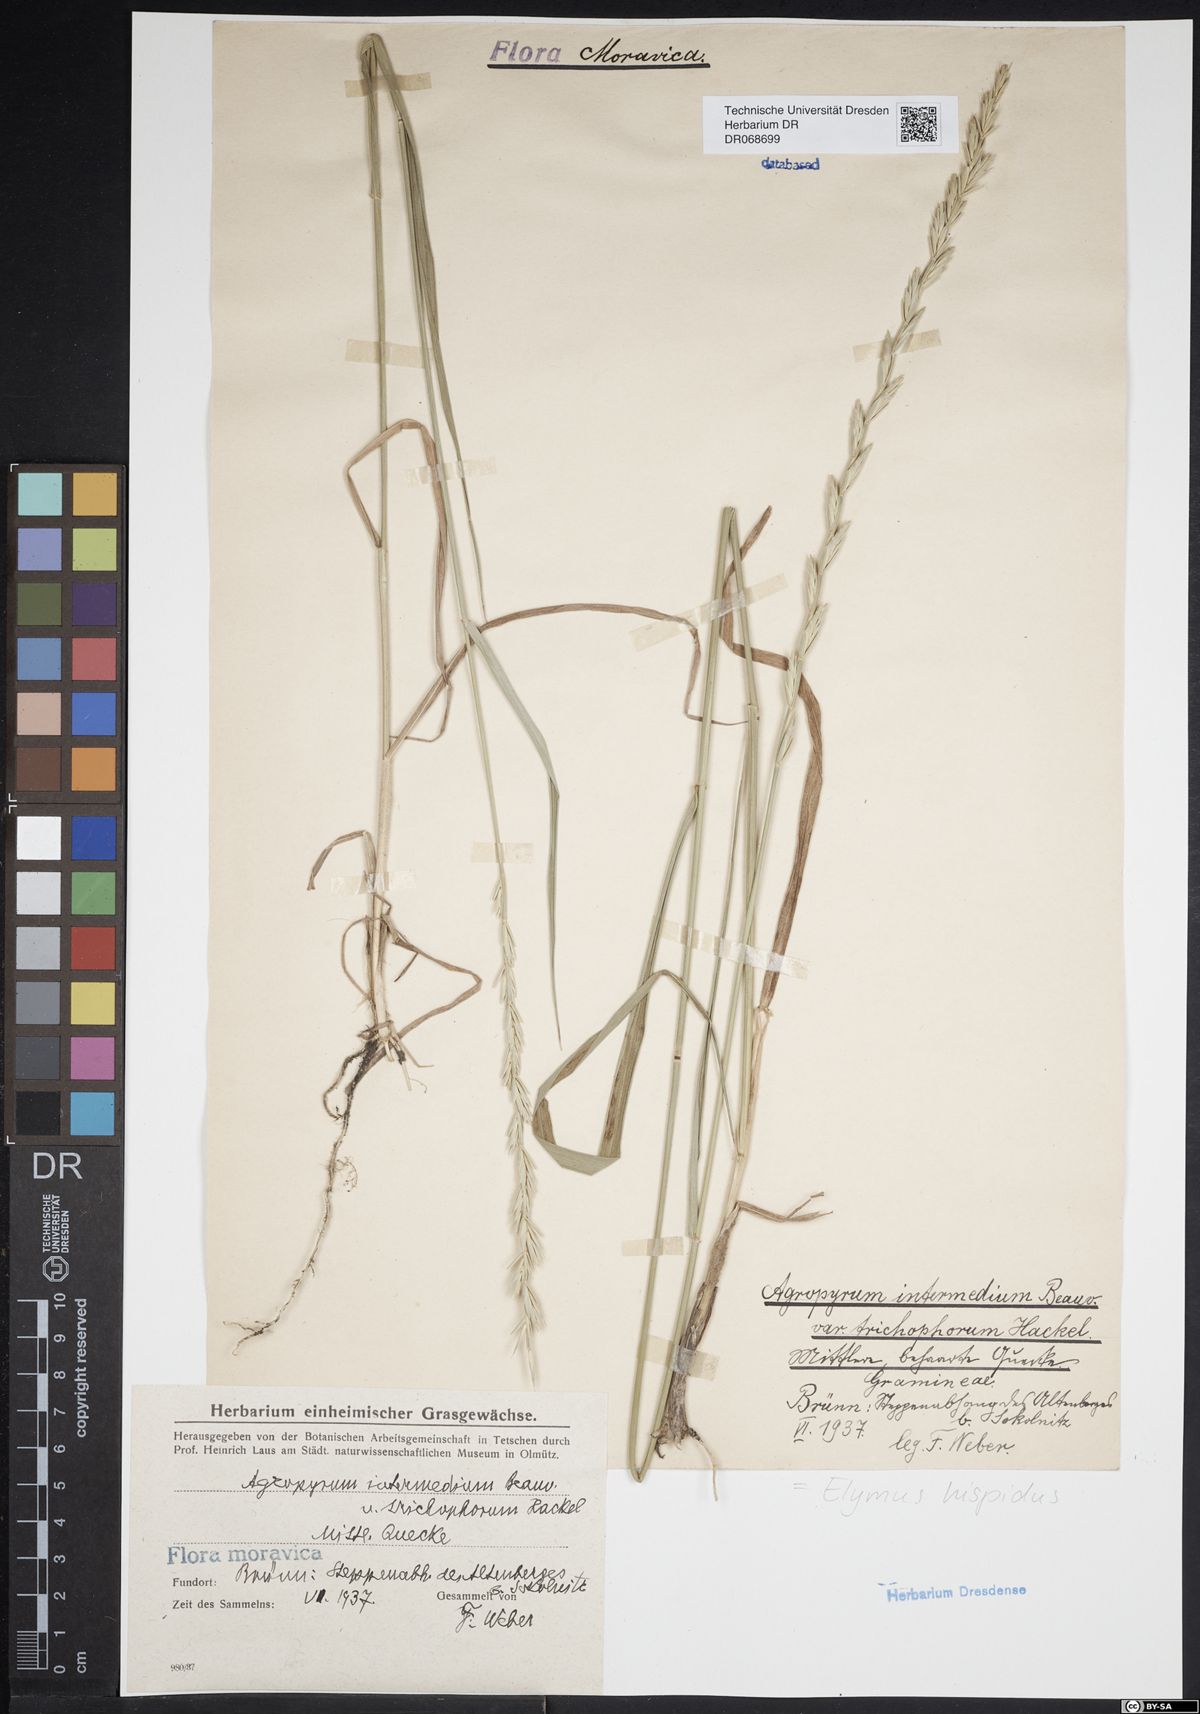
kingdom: Plantae
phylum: Tracheophyta
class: Liliopsida
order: Poales
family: Poaceae
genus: Thinopyrum
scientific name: Thinopyrum intermedium
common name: Intermediate wheatgrass
